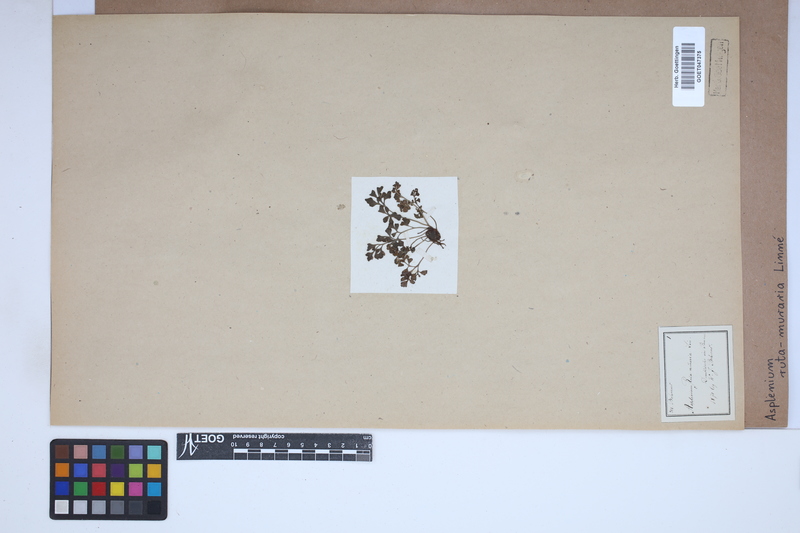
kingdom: Plantae
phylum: Tracheophyta
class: Polypodiopsida
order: Polypodiales
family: Aspleniaceae
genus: Asplenium
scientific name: Asplenium ruta-muraria
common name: Wall-rue
